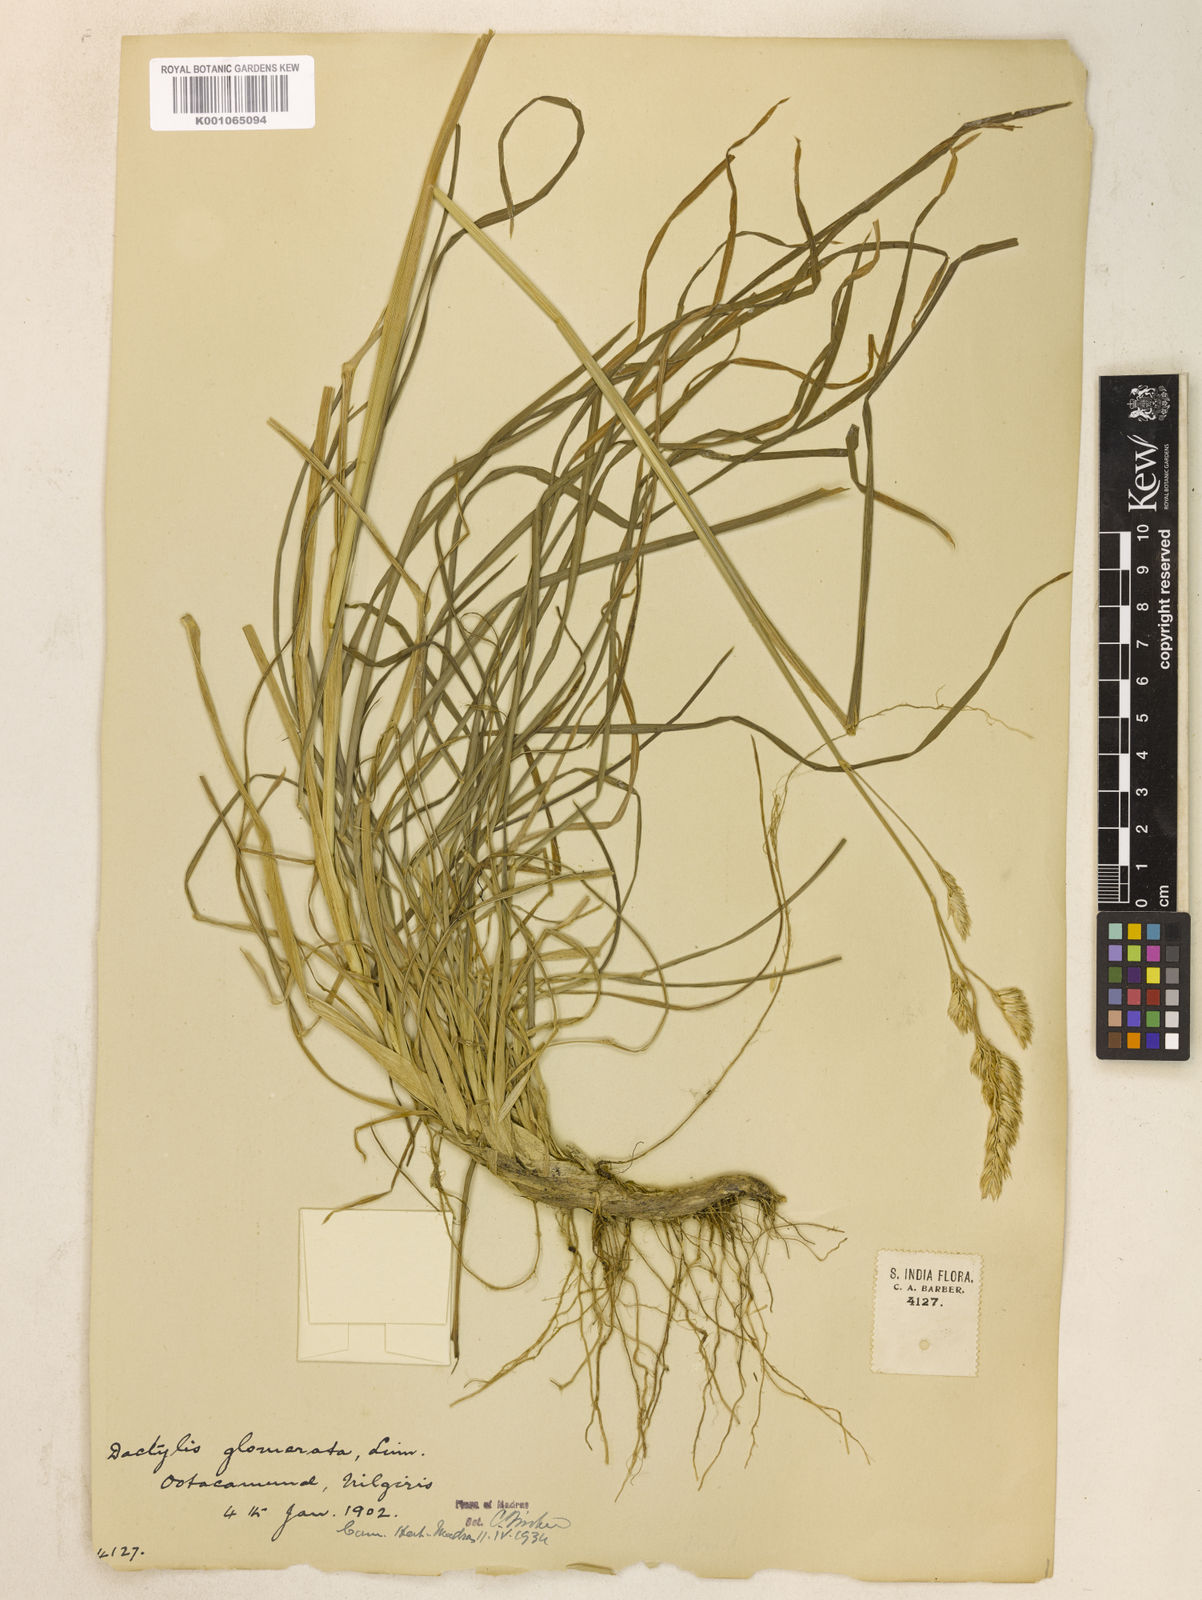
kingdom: Plantae
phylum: Tracheophyta
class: Liliopsida
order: Poales
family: Poaceae
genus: Dactylis
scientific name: Dactylis glomerata
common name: Orchardgrass
